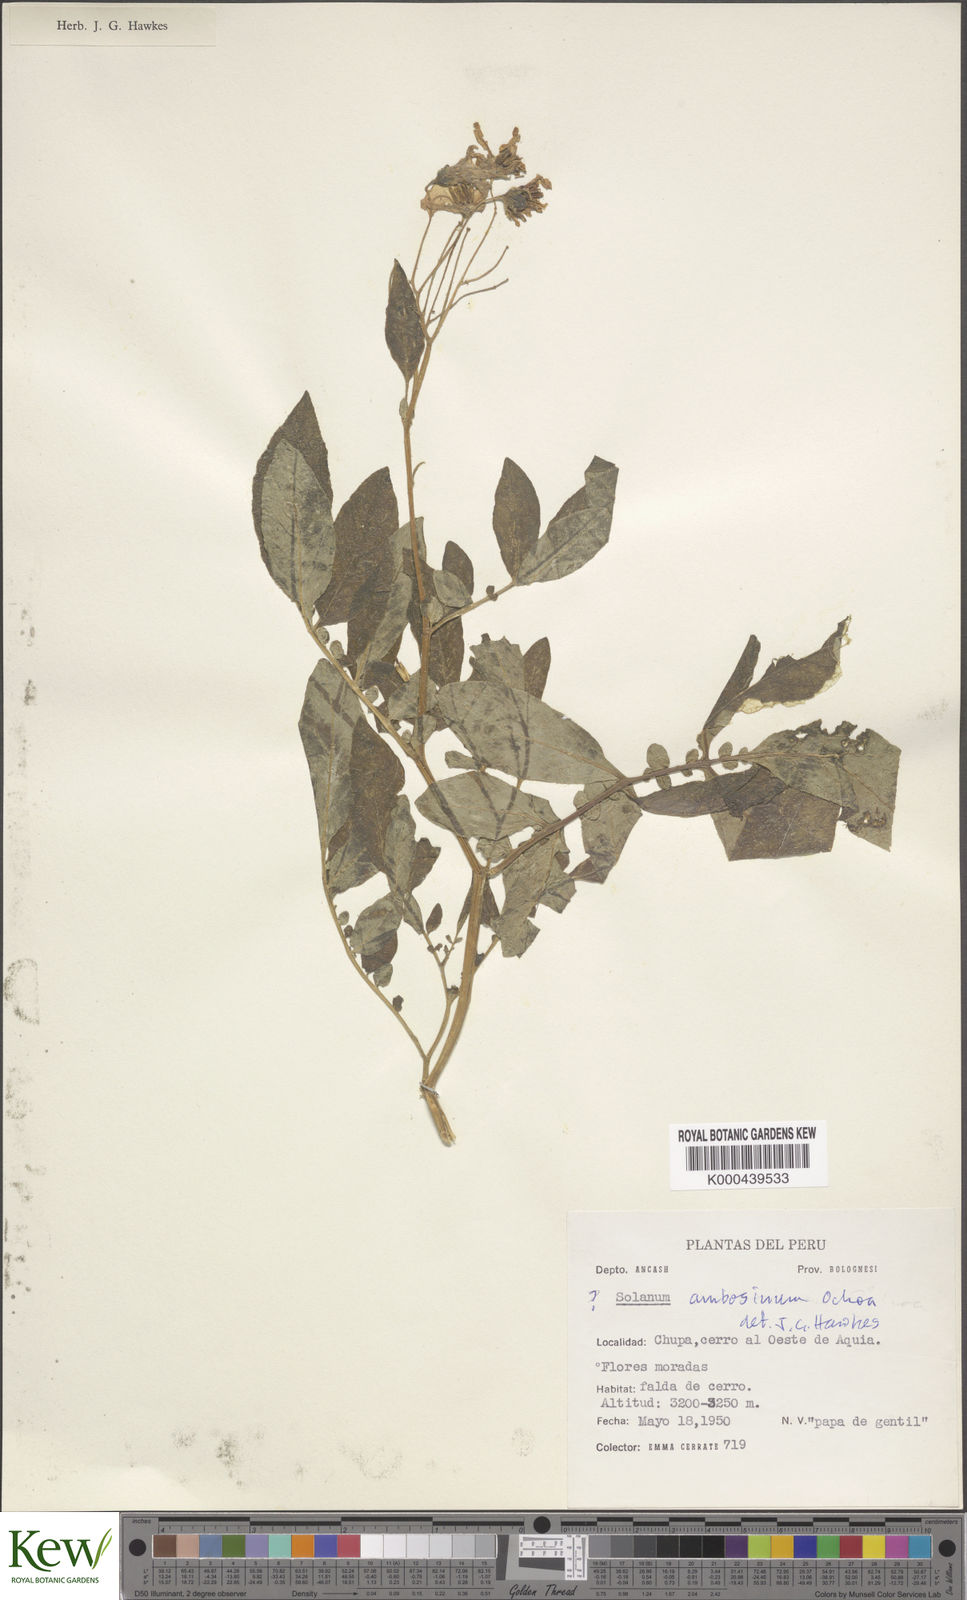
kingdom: Plantae
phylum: Tracheophyta
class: Magnoliopsida
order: Solanales
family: Solanaceae
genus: Solanum
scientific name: Solanum multiinterruptum
